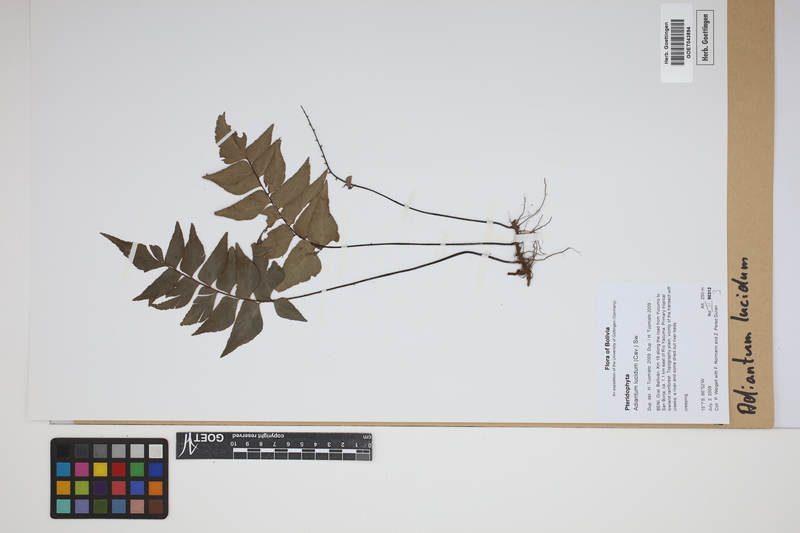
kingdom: Plantae
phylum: Tracheophyta
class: Polypodiopsida
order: Polypodiales
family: Pteridaceae
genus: Adiantum
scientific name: Adiantum lucidum
